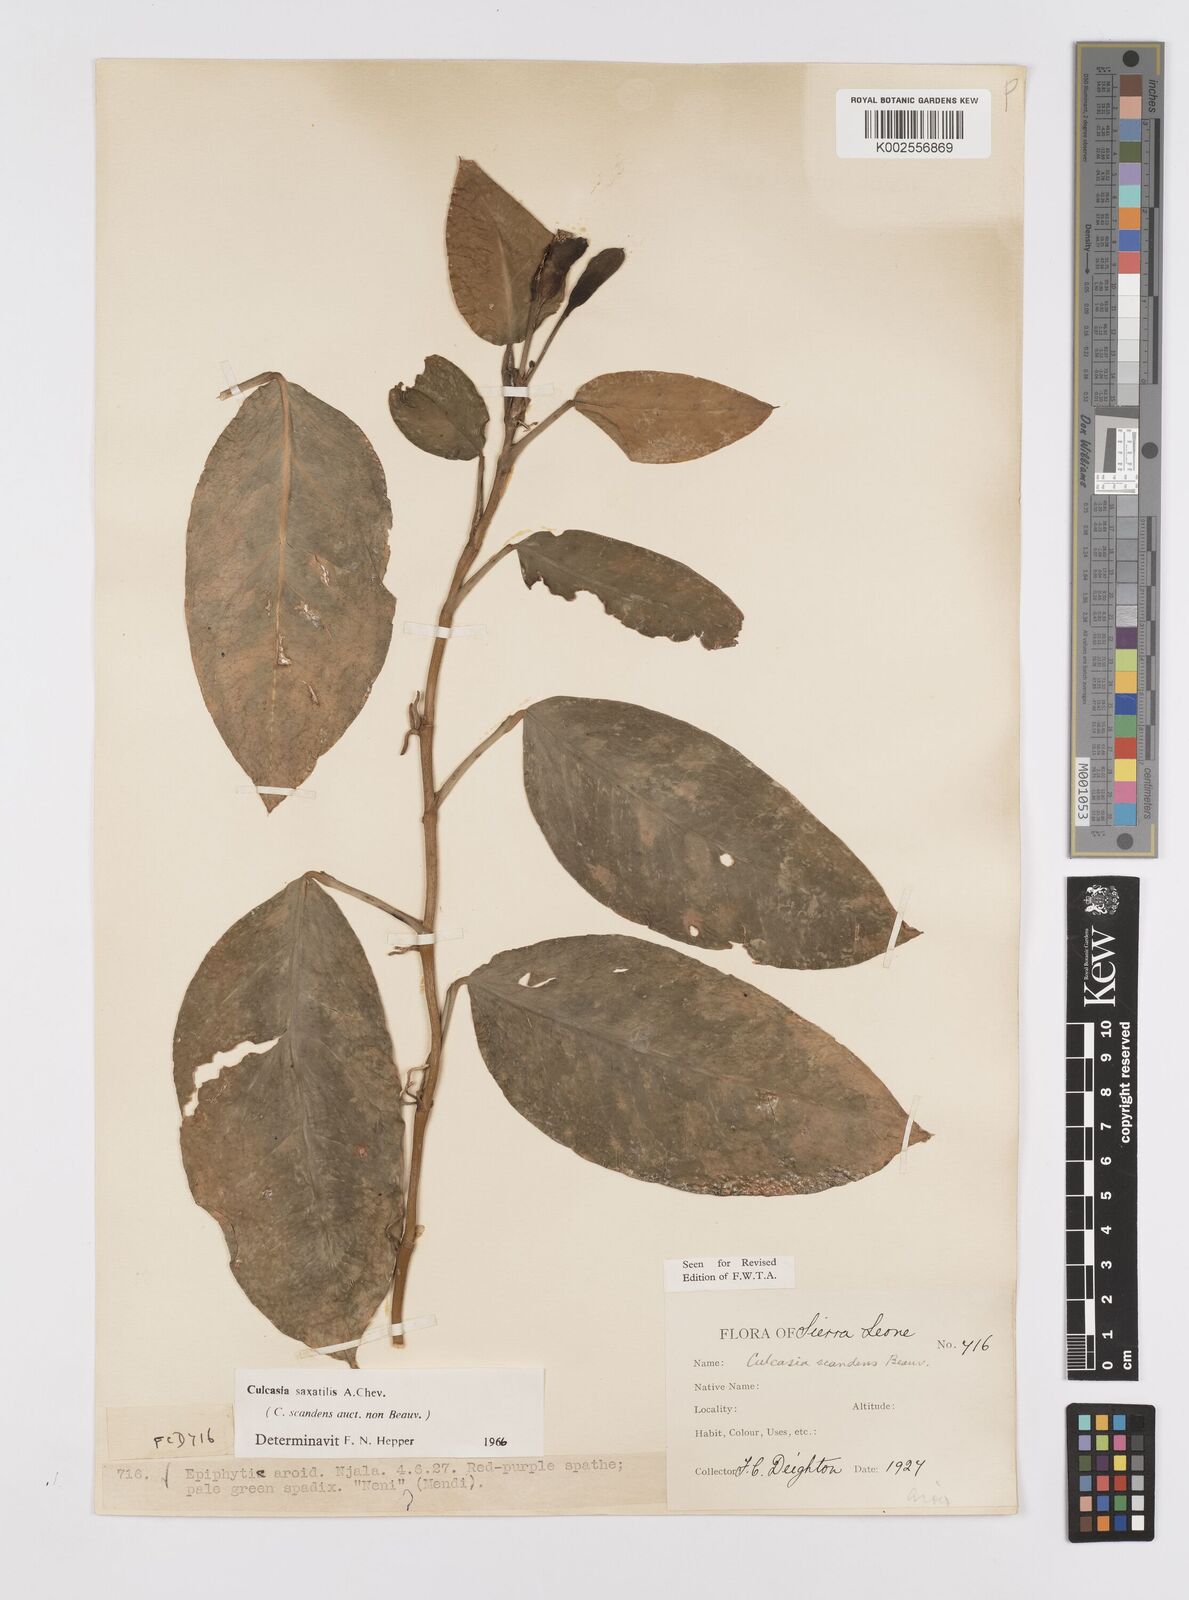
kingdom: Plantae
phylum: Tracheophyta
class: Liliopsida
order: Alismatales
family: Araceae
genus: Culcasia
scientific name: Culcasia scandens
